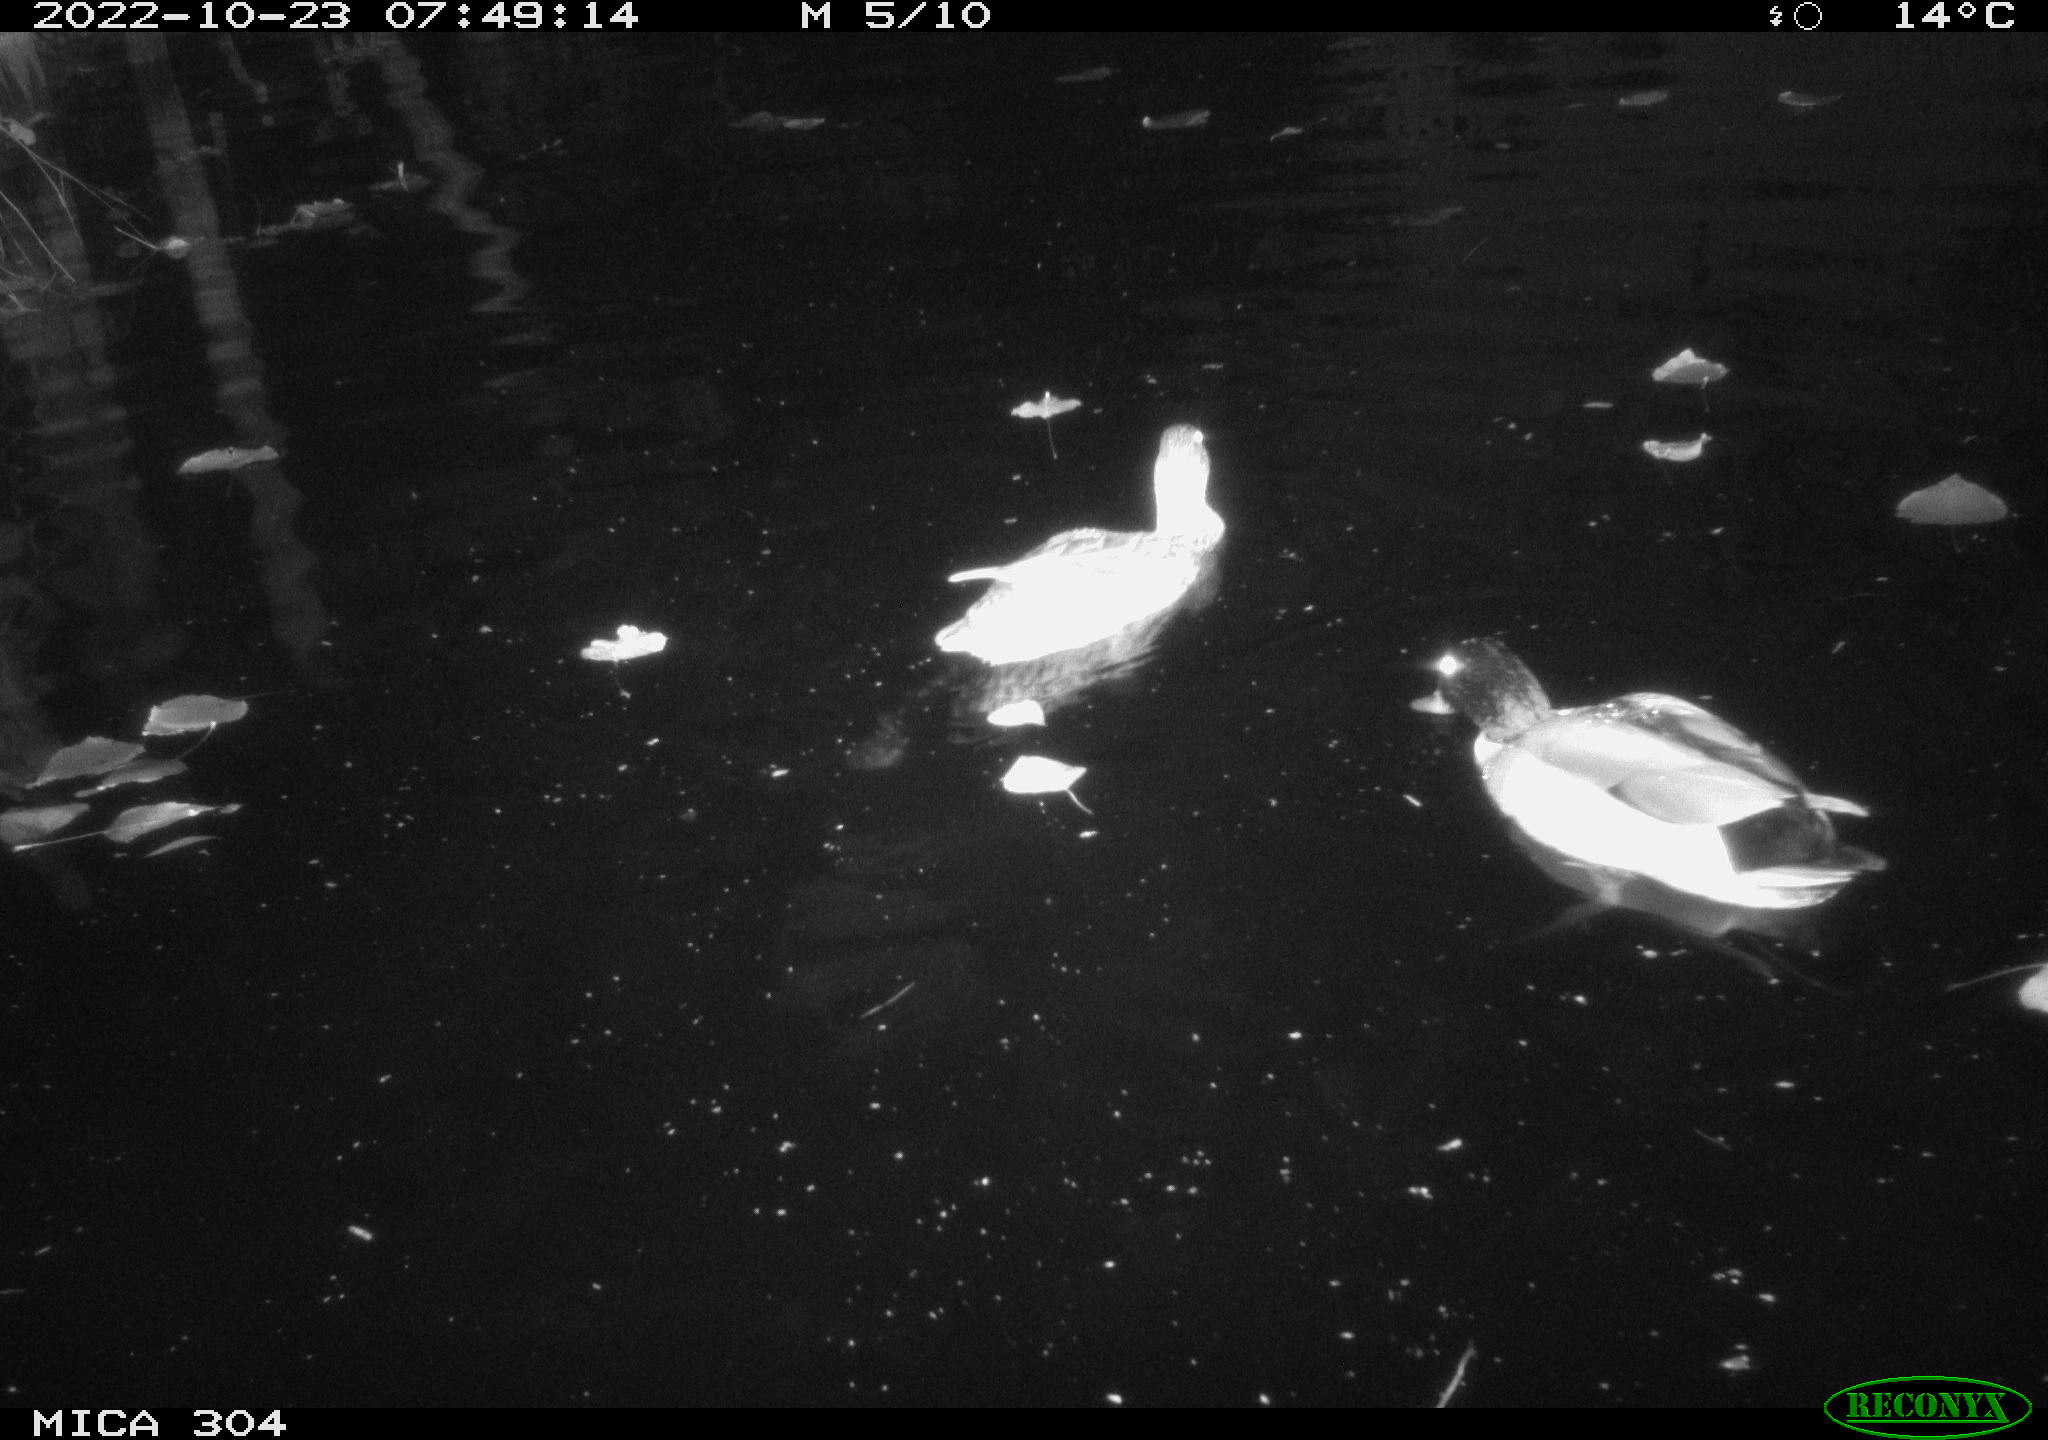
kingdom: Animalia
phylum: Chordata
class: Aves
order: Anseriformes
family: Anatidae
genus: Anas
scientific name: Anas
